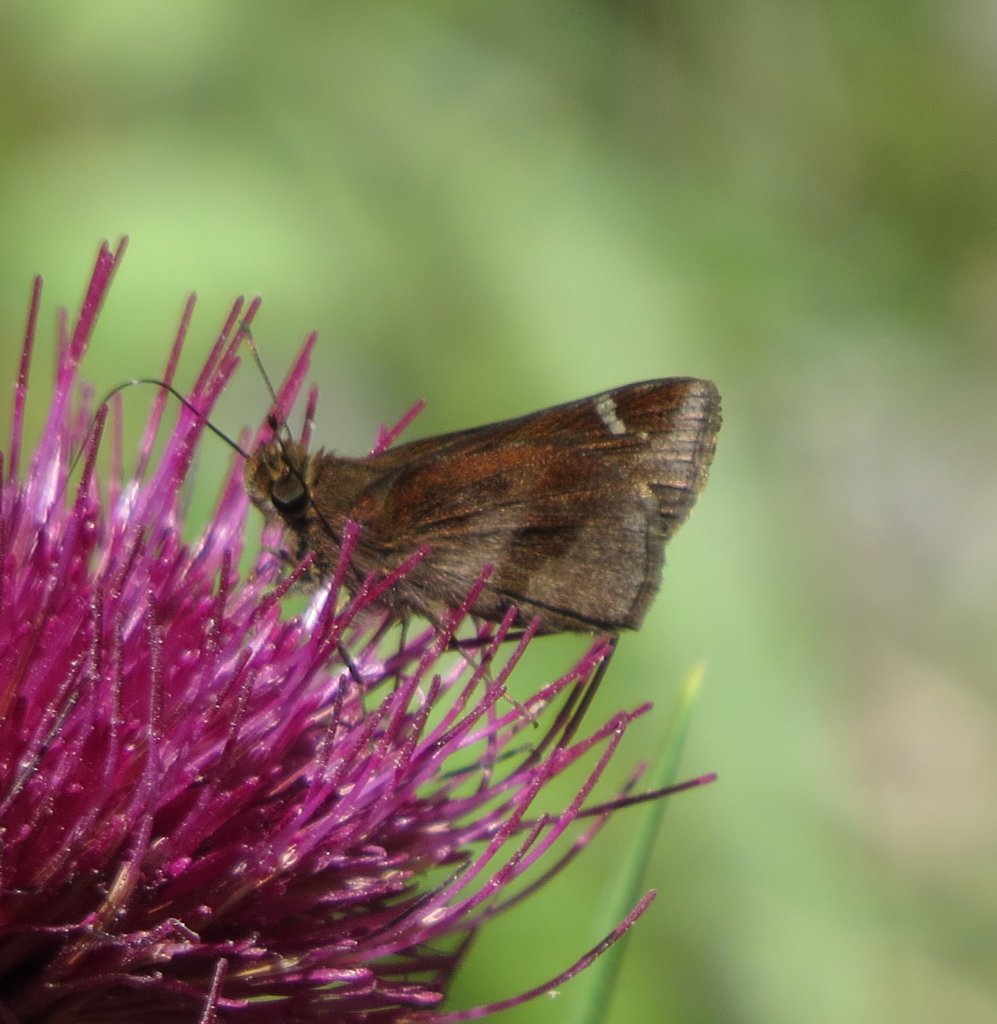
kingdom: Animalia
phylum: Arthropoda
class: Insecta
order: Lepidoptera
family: Hesperiidae
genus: Lerema
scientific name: Lerema accius
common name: Clouded Skipper
